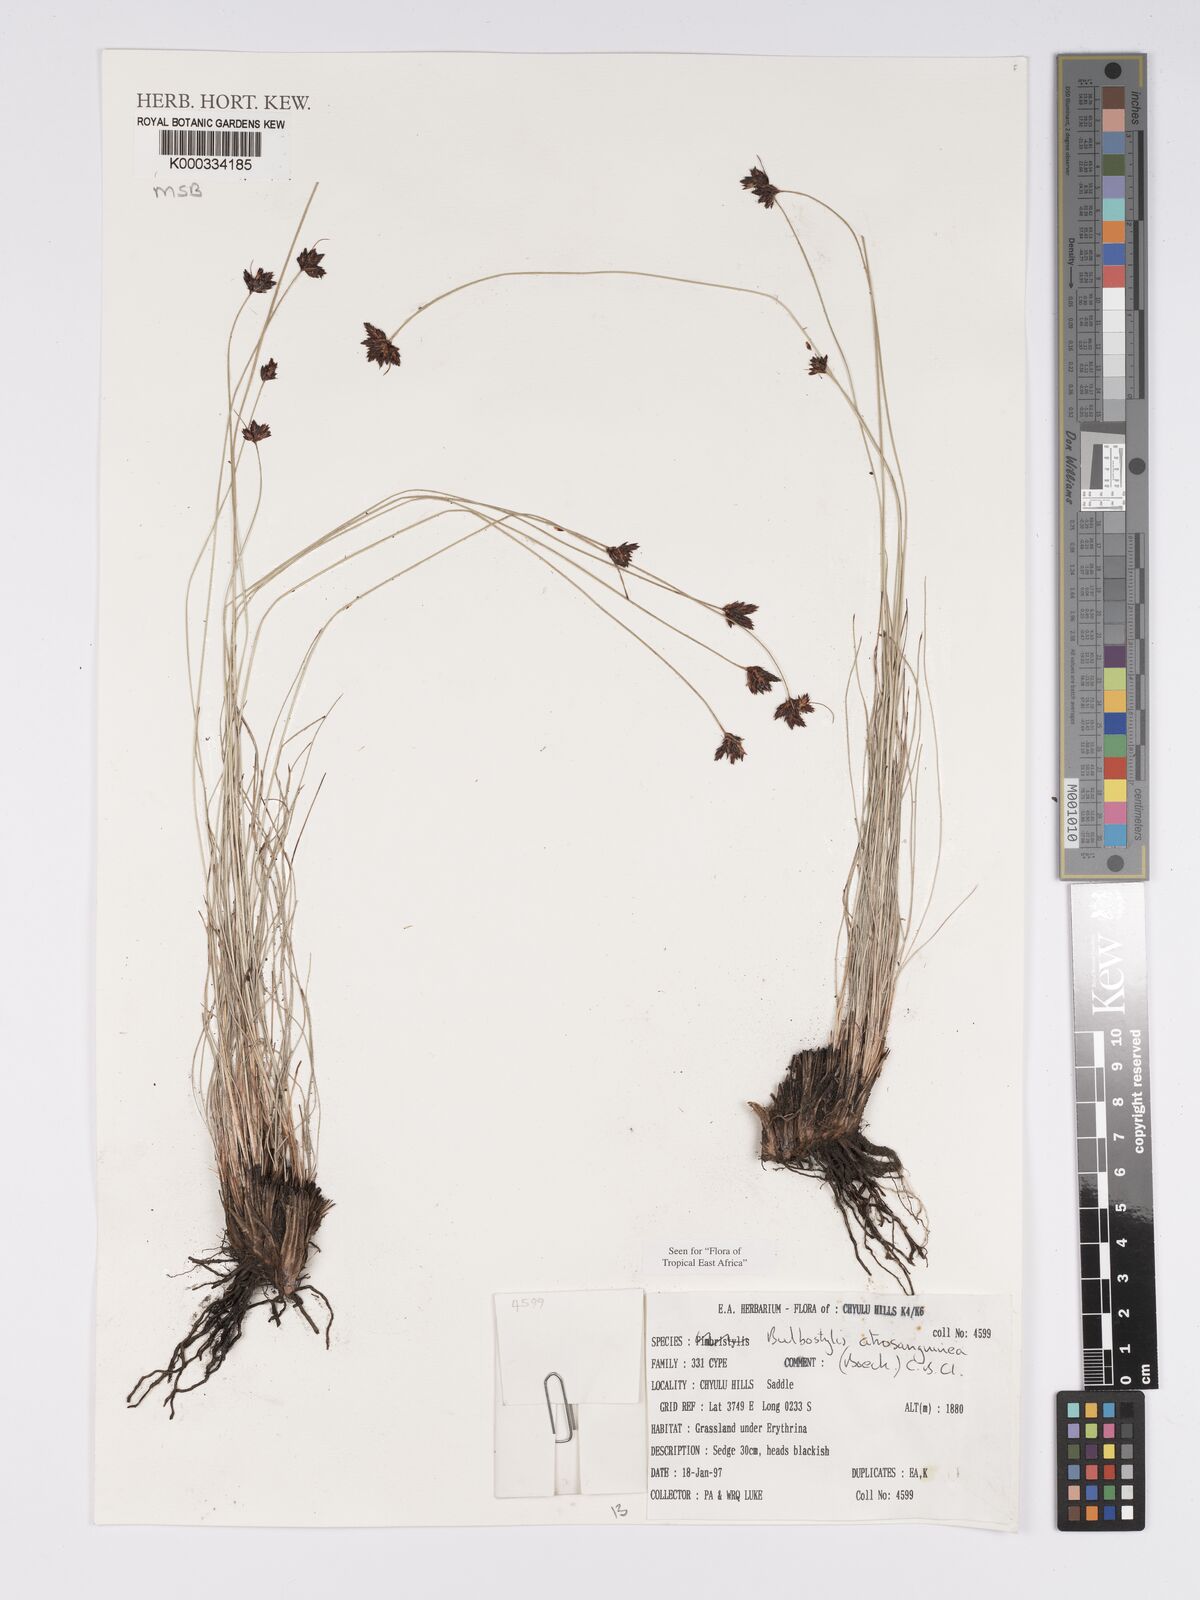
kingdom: Plantae
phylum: Tracheophyta
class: Liliopsida
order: Poales
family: Cyperaceae
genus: Bulbostylis
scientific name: Bulbostylis atrosanguinea
